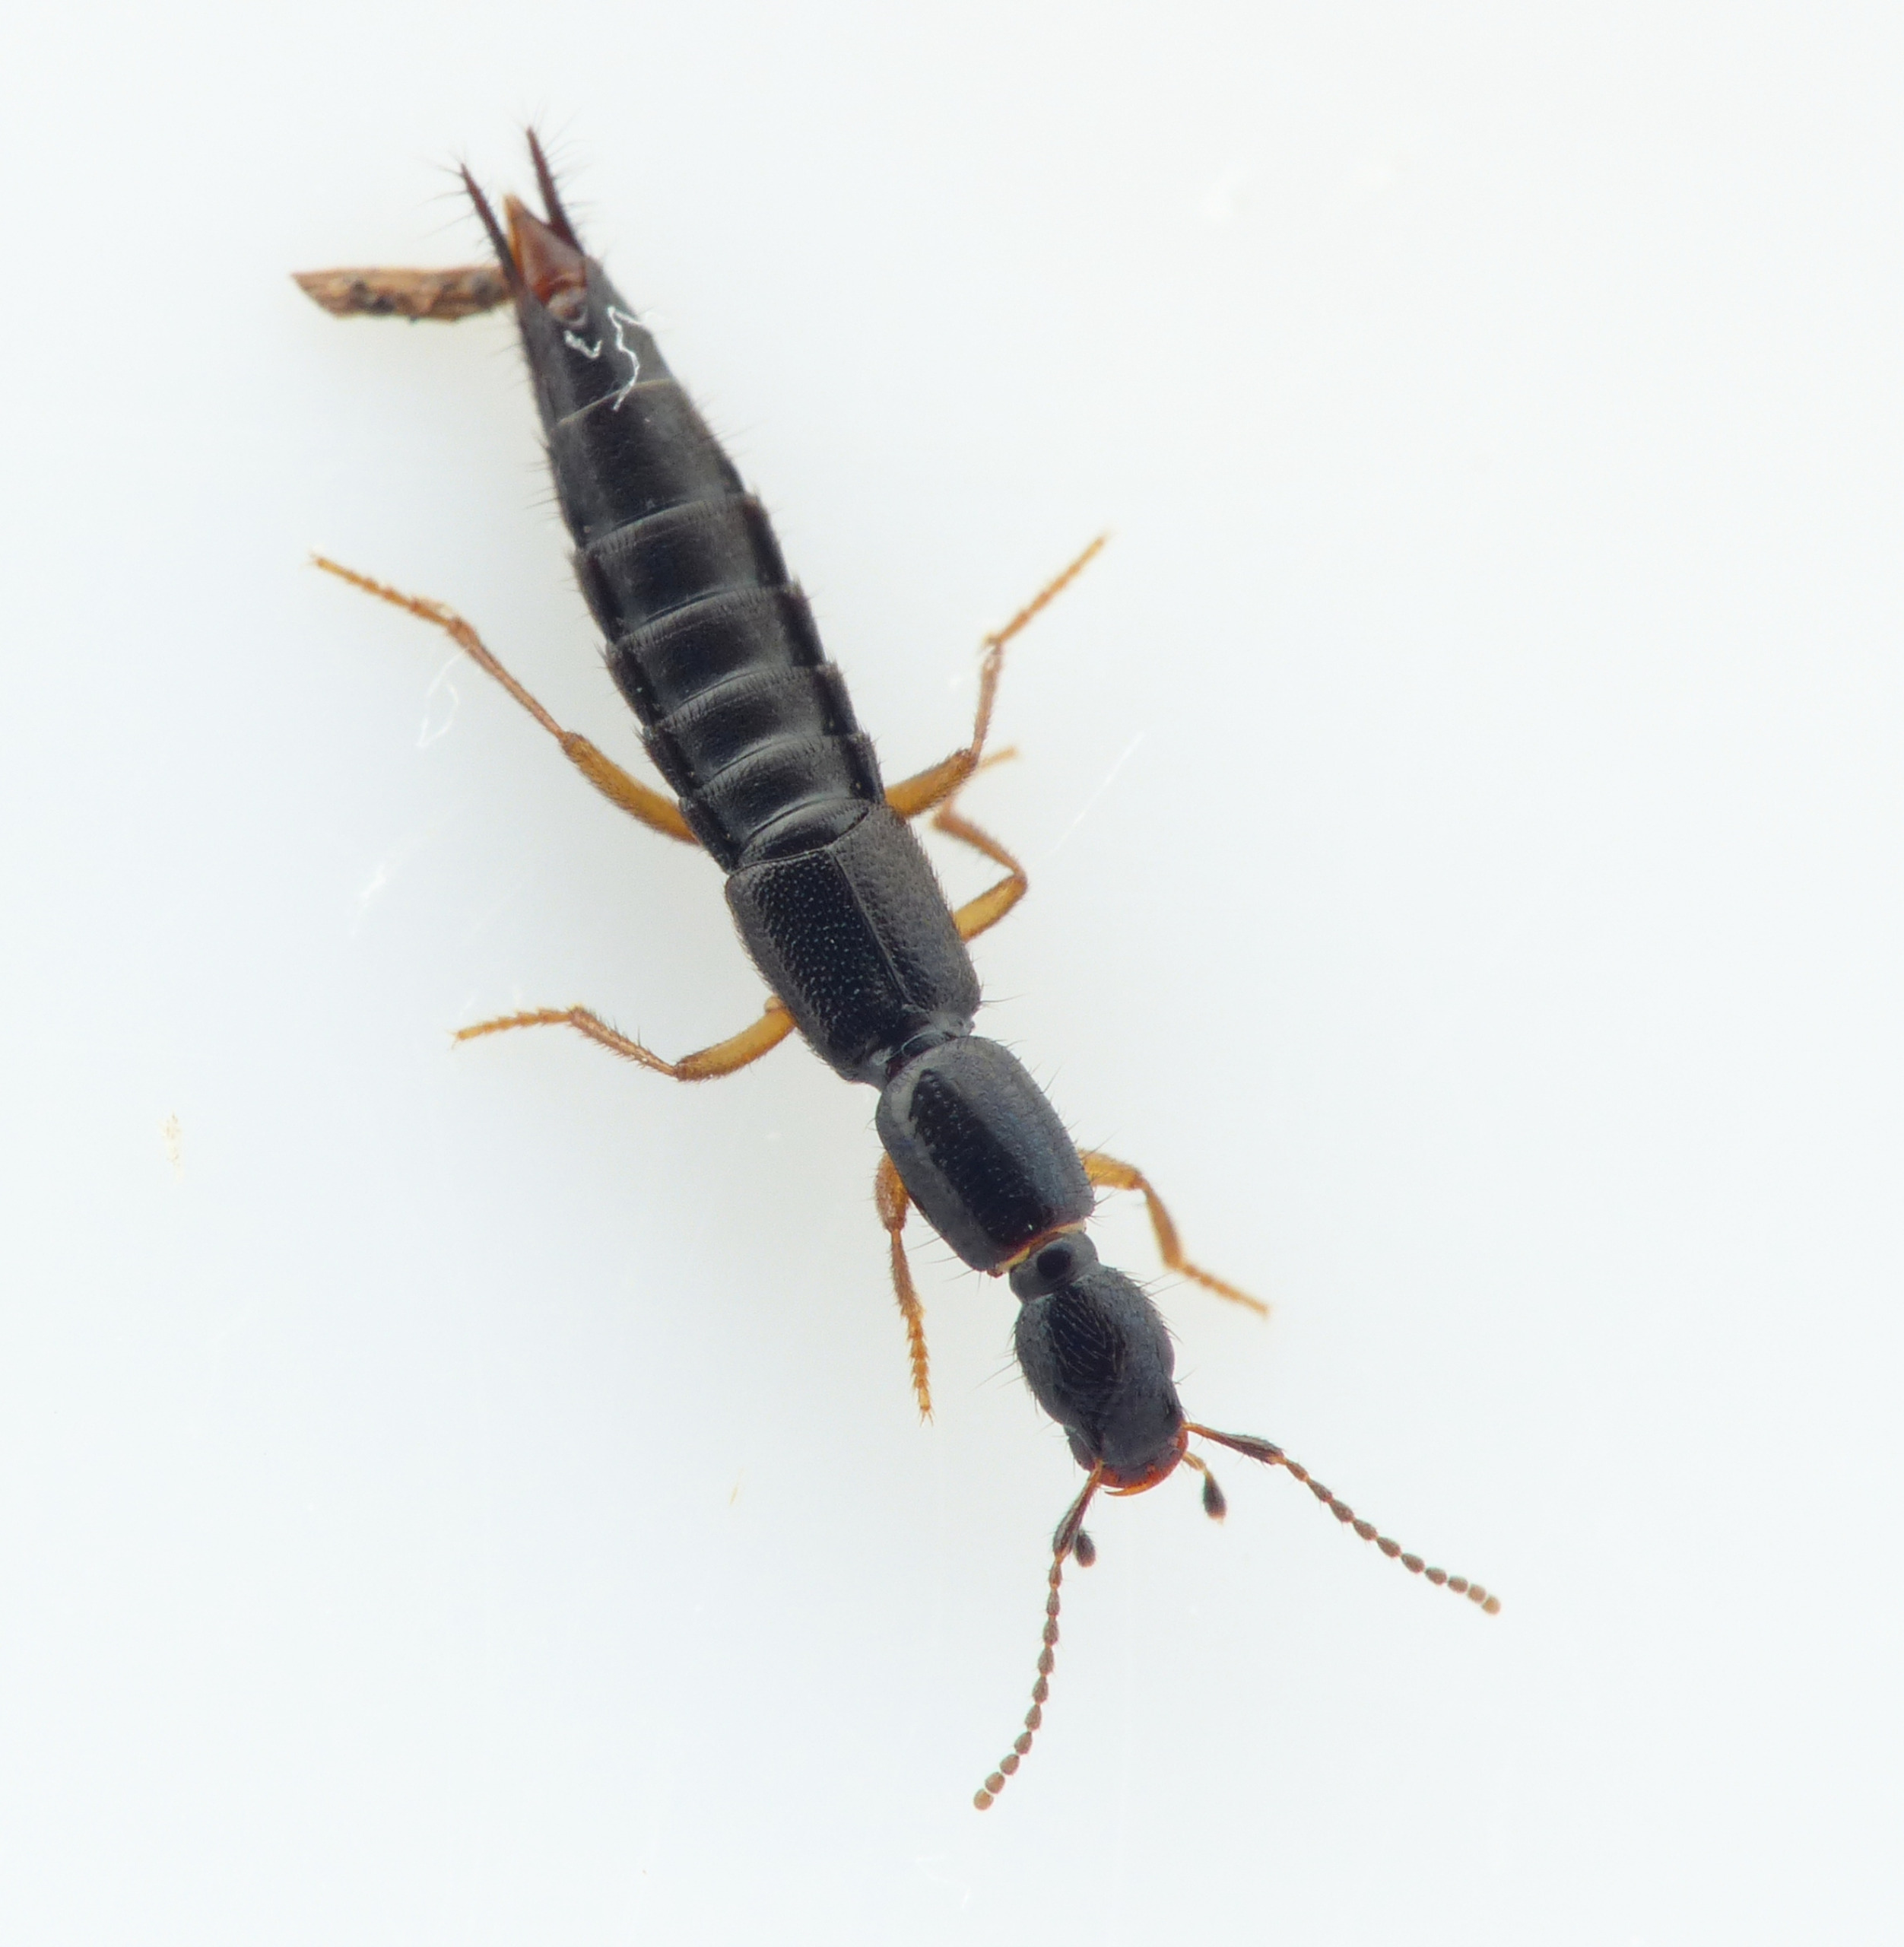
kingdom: Animalia
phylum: Arthropoda
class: Insecta
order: Coleoptera
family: Staphylinidae
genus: Ochthephilum
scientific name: Ochthephilum collare
